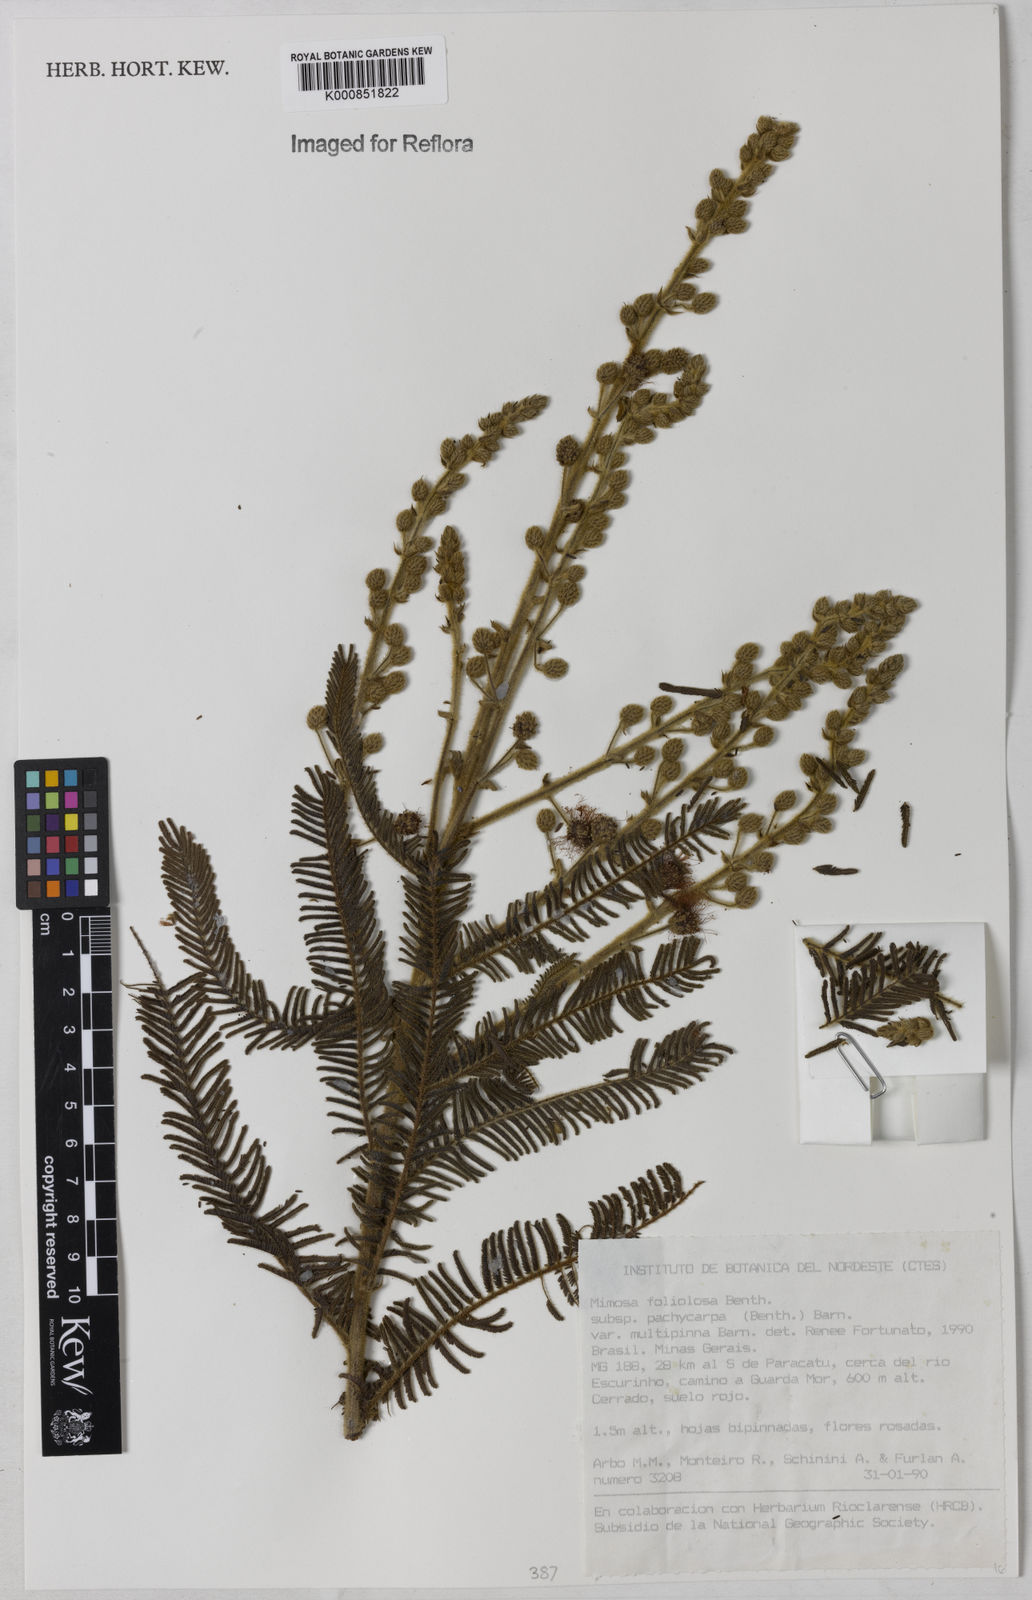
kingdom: Plantae
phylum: Tracheophyta
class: Magnoliopsida
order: Fabales
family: Fabaceae
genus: Mimosa
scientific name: Mimosa foliolosa
